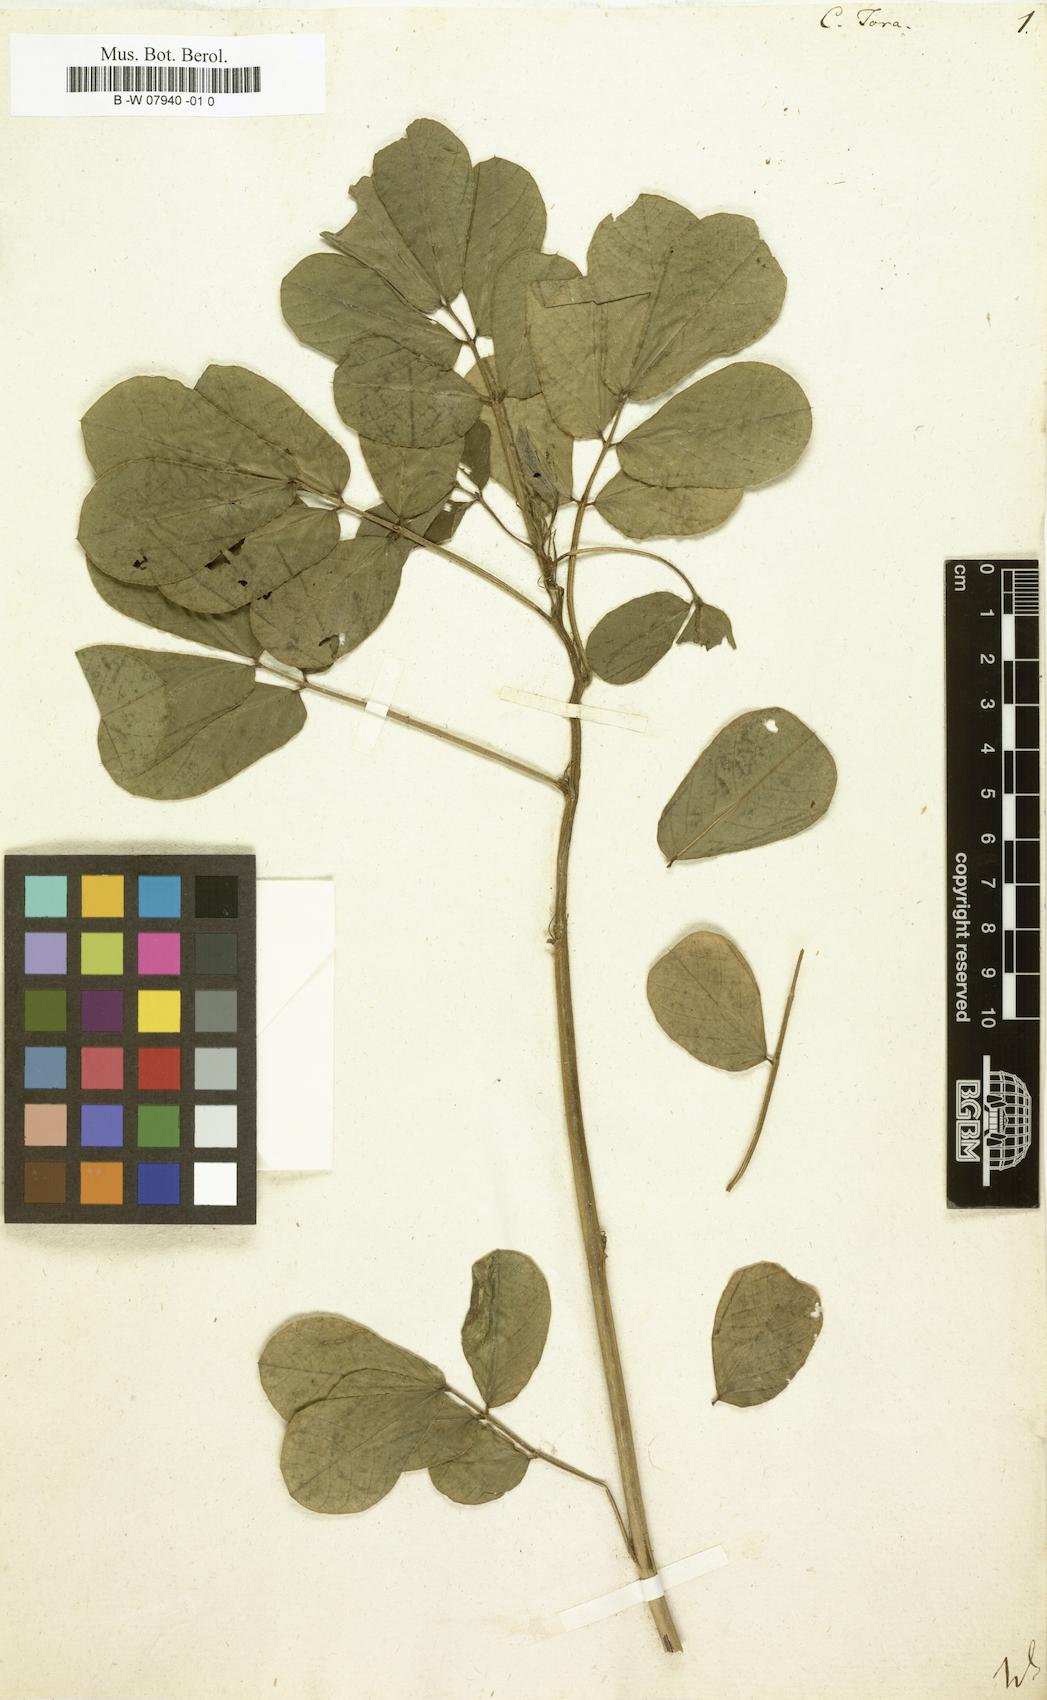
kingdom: Plantae
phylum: Tracheophyta
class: Magnoliopsida
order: Fabales
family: Fabaceae
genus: Senna
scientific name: Senna tora
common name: Sickle senna
